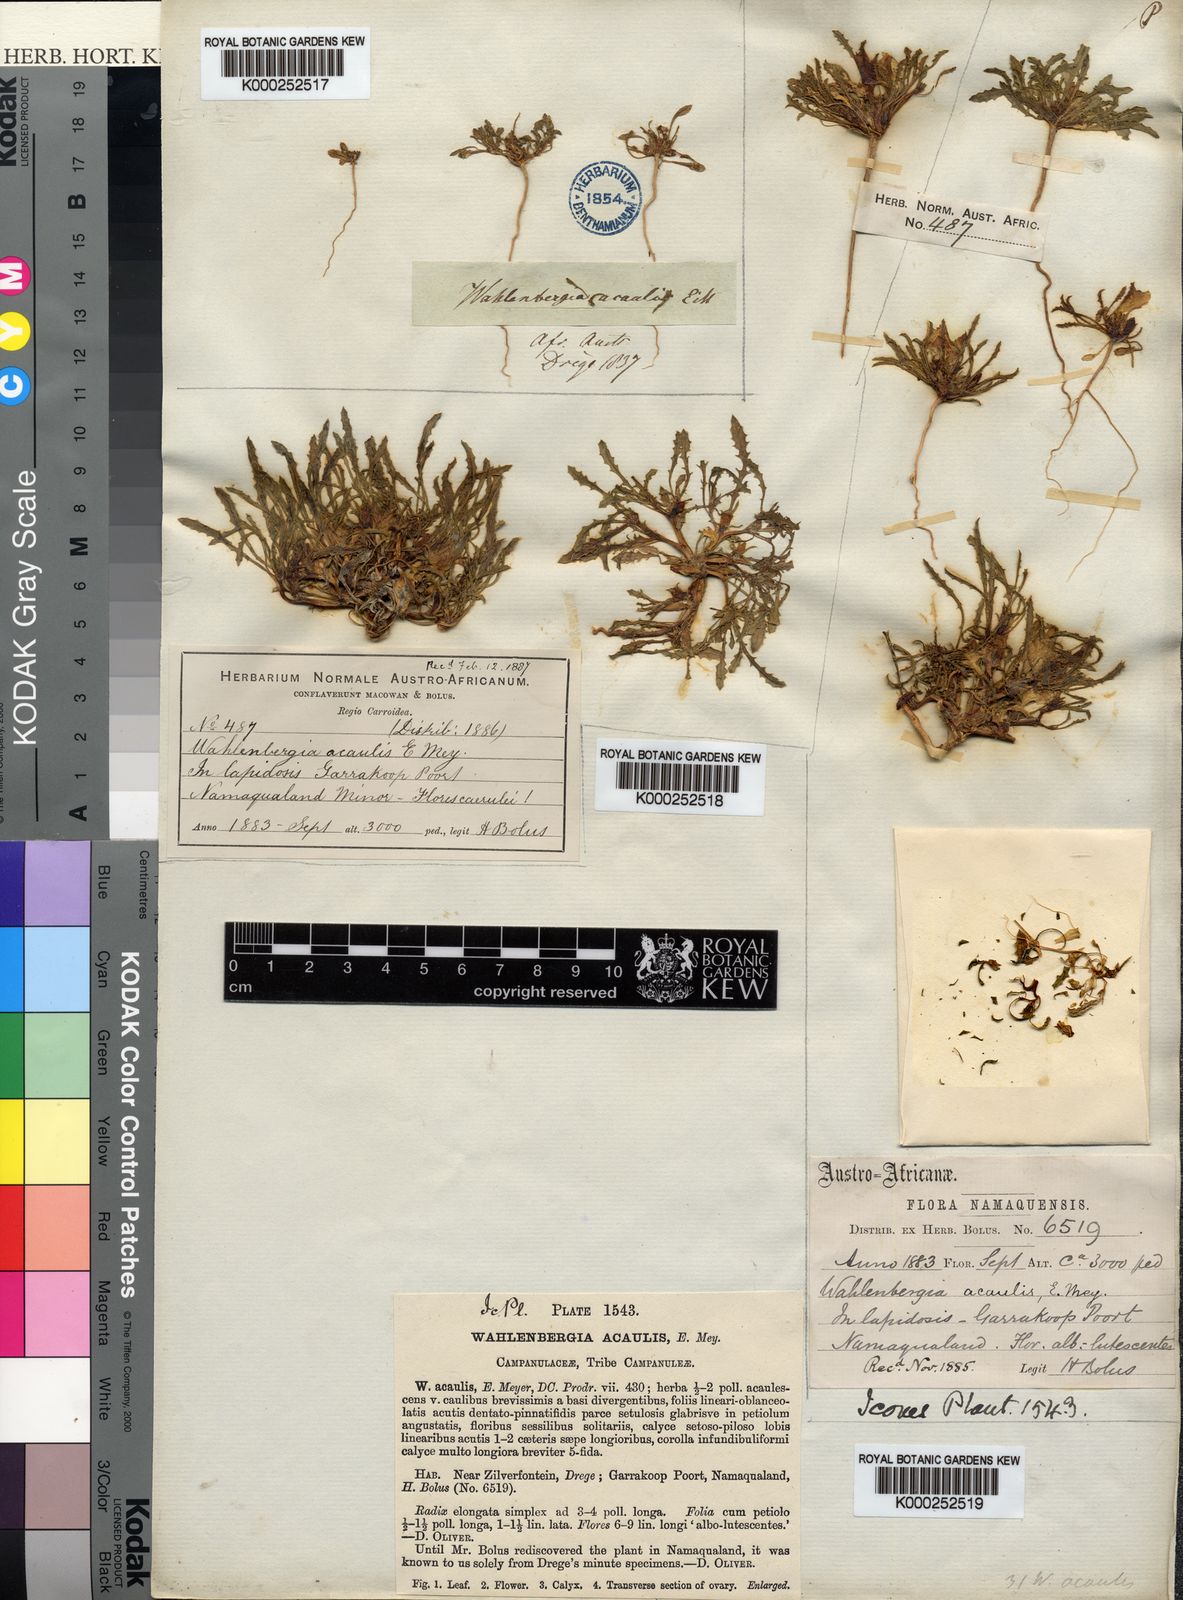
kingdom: Plantae
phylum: Tracheophyta
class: Magnoliopsida
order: Asterales
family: Campanulaceae
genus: Wahlenbergia
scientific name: Wahlenbergia
